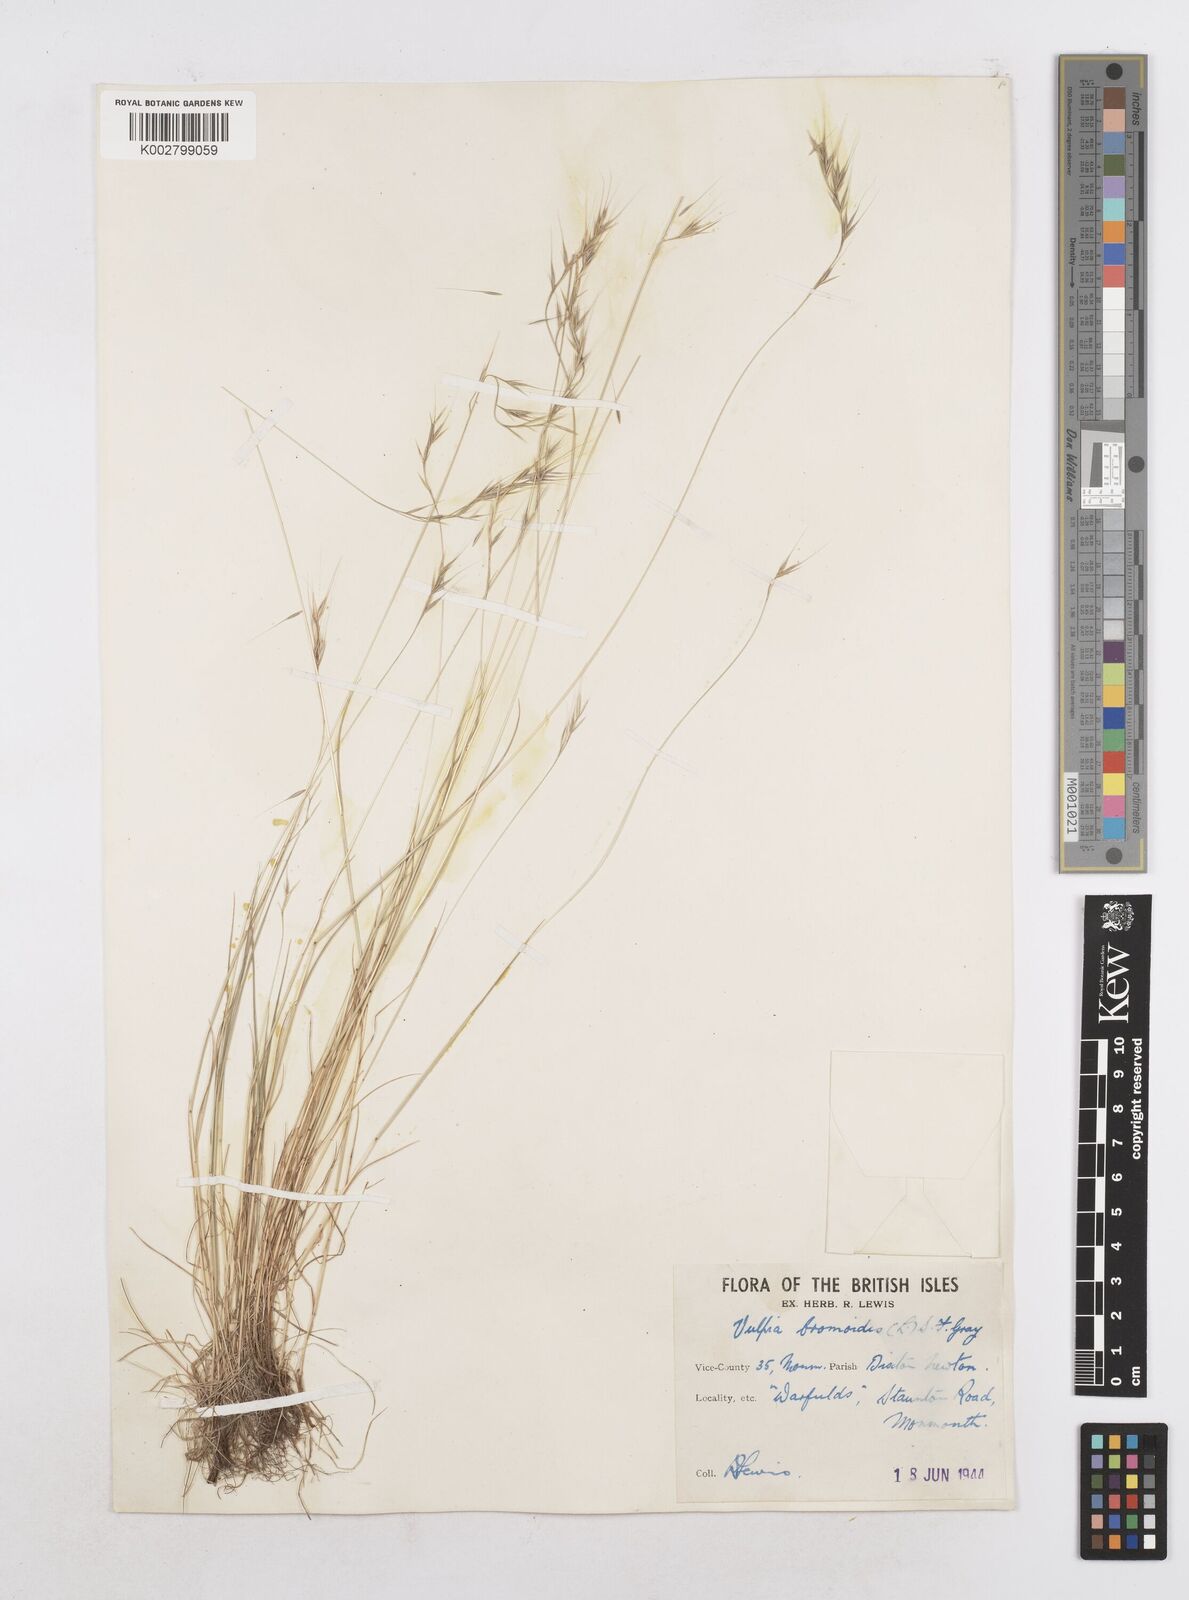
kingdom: Plantae
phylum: Tracheophyta
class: Liliopsida
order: Poales
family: Poaceae
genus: Festuca
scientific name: Festuca bromoides
